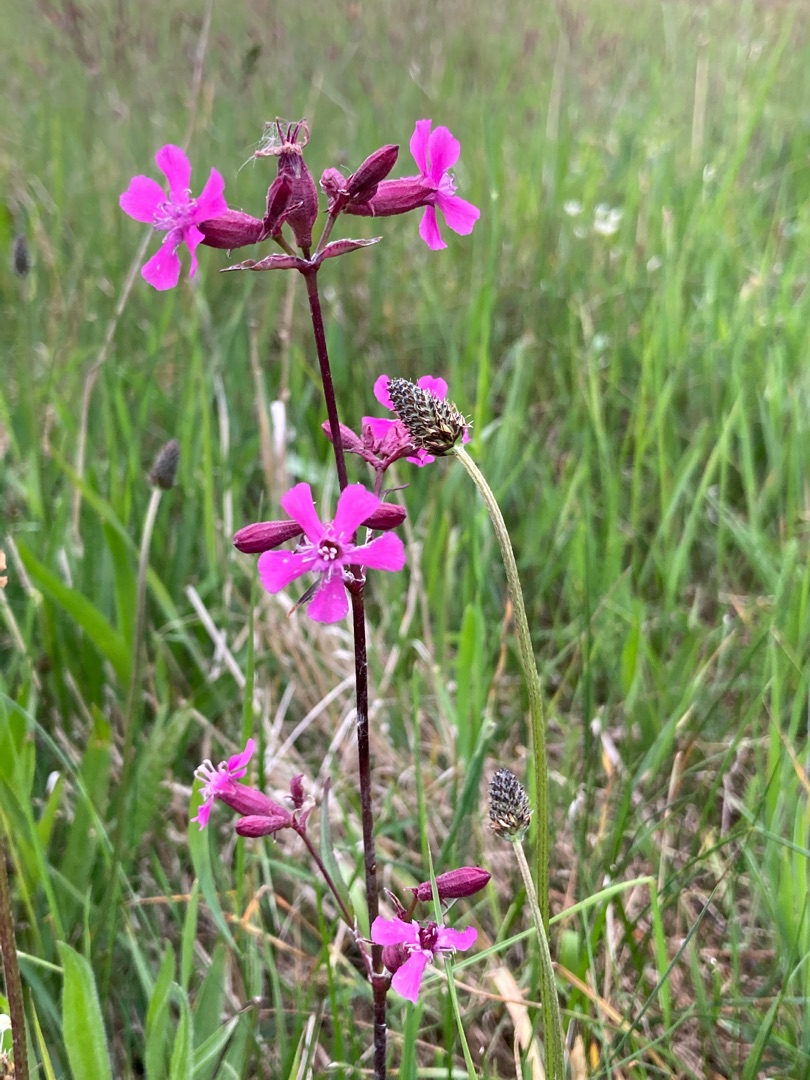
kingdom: Plantae
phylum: Tracheophyta
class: Magnoliopsida
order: Caryophyllales
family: Caryophyllaceae
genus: Viscaria
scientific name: Viscaria vulgaris
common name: Tjærenellike
